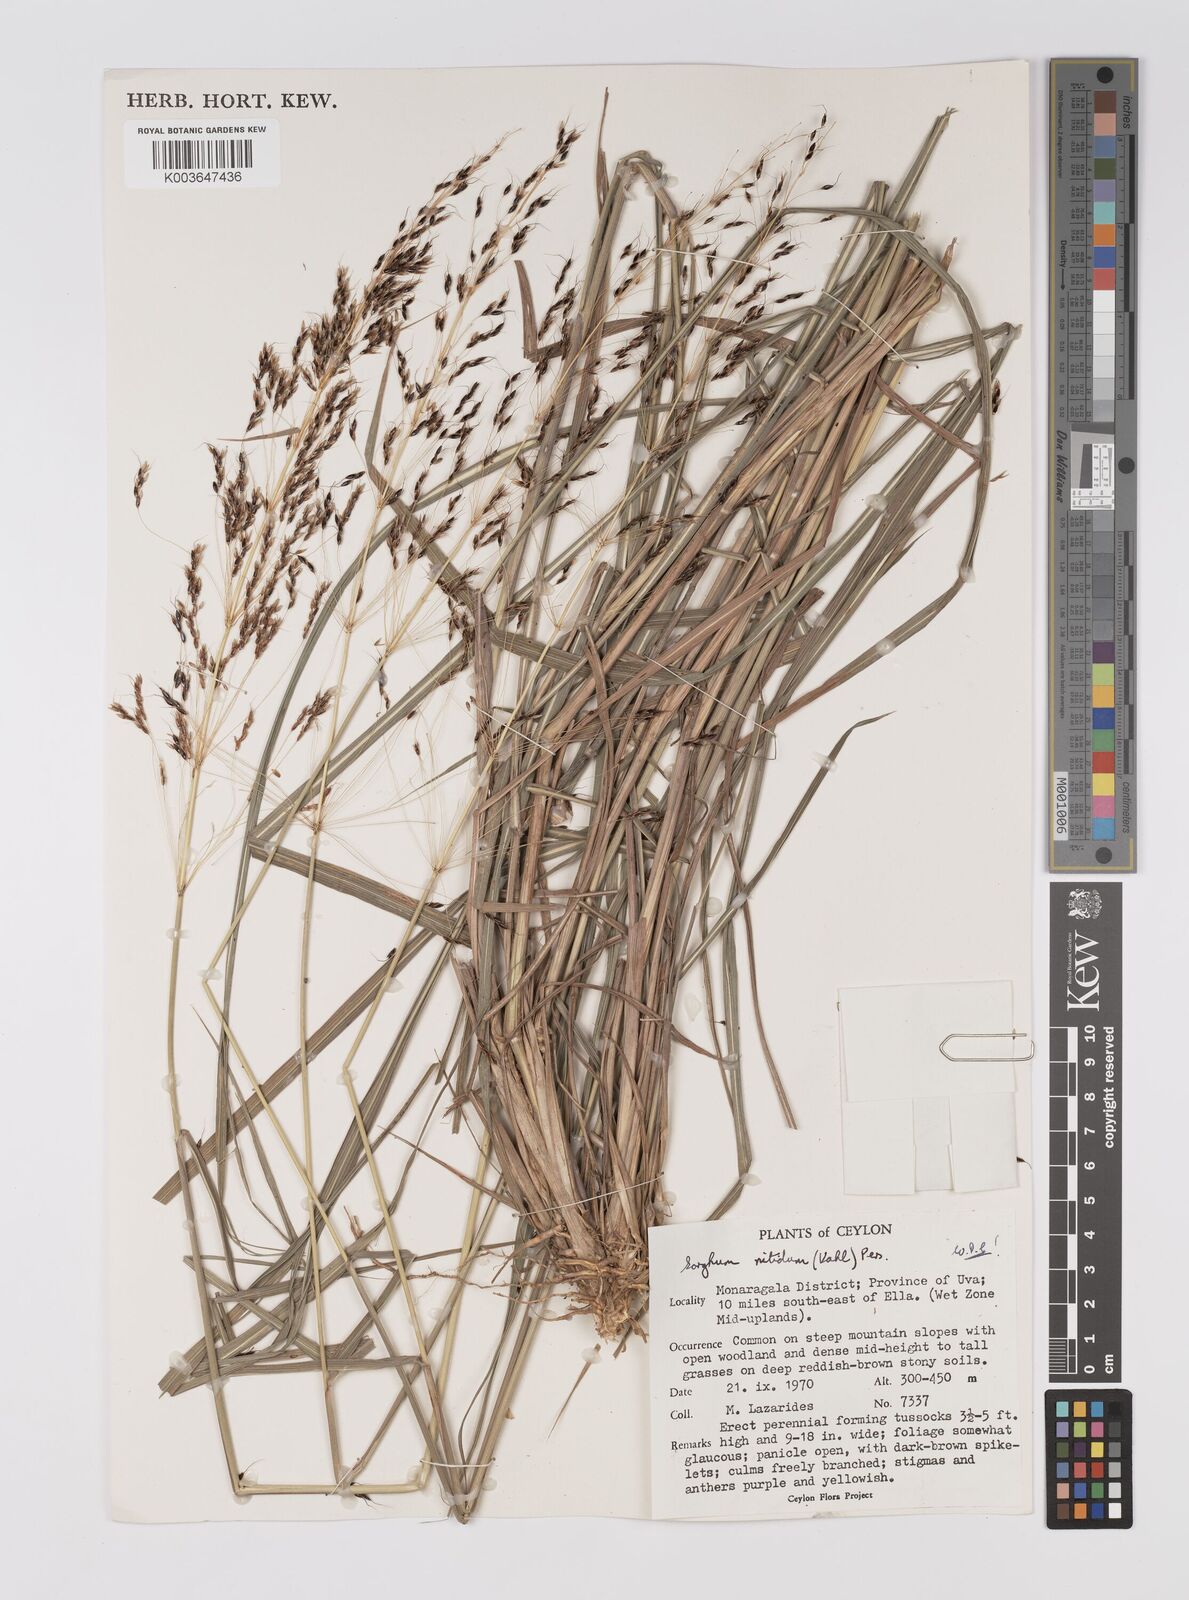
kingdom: Plantae
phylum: Tracheophyta
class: Liliopsida
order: Poales
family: Poaceae
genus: Sorghum
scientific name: Sorghum nitidum
